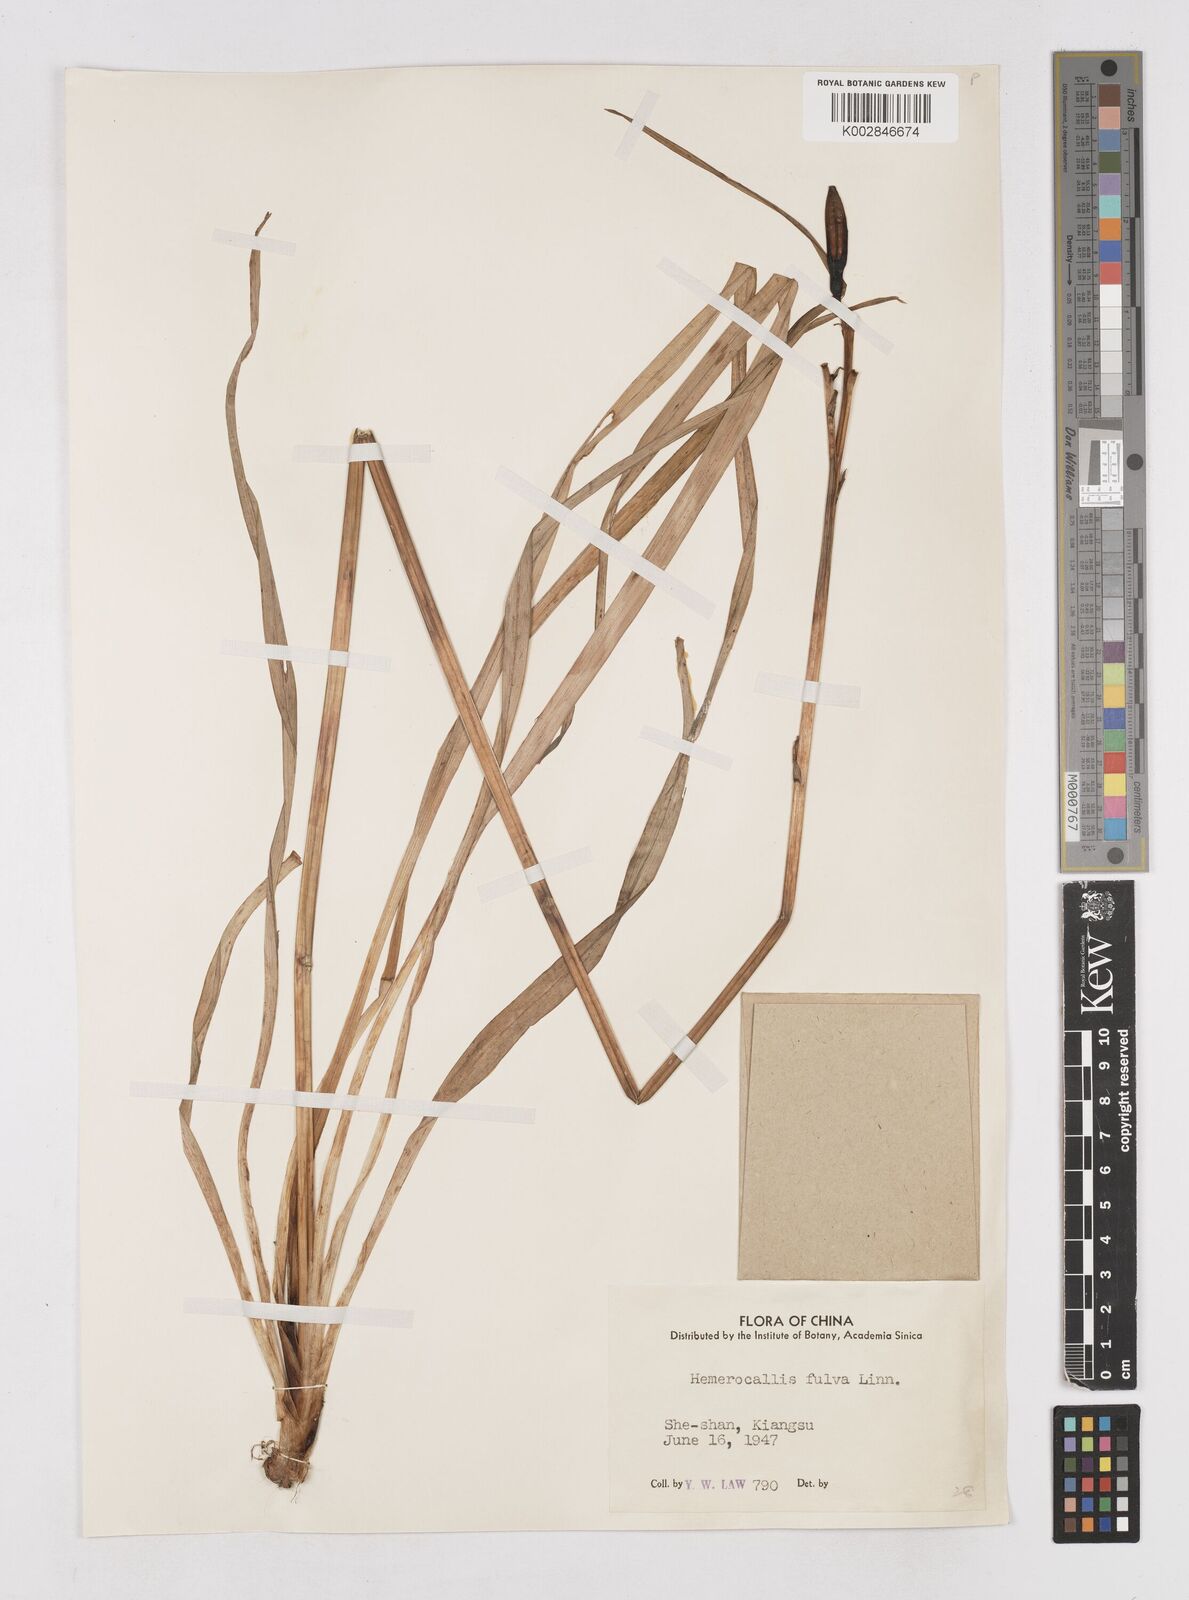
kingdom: Plantae
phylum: Tracheophyta
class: Liliopsida
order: Asparagales
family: Asphodelaceae
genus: Hemerocallis
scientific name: Hemerocallis fulva
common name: Orange day-lily
